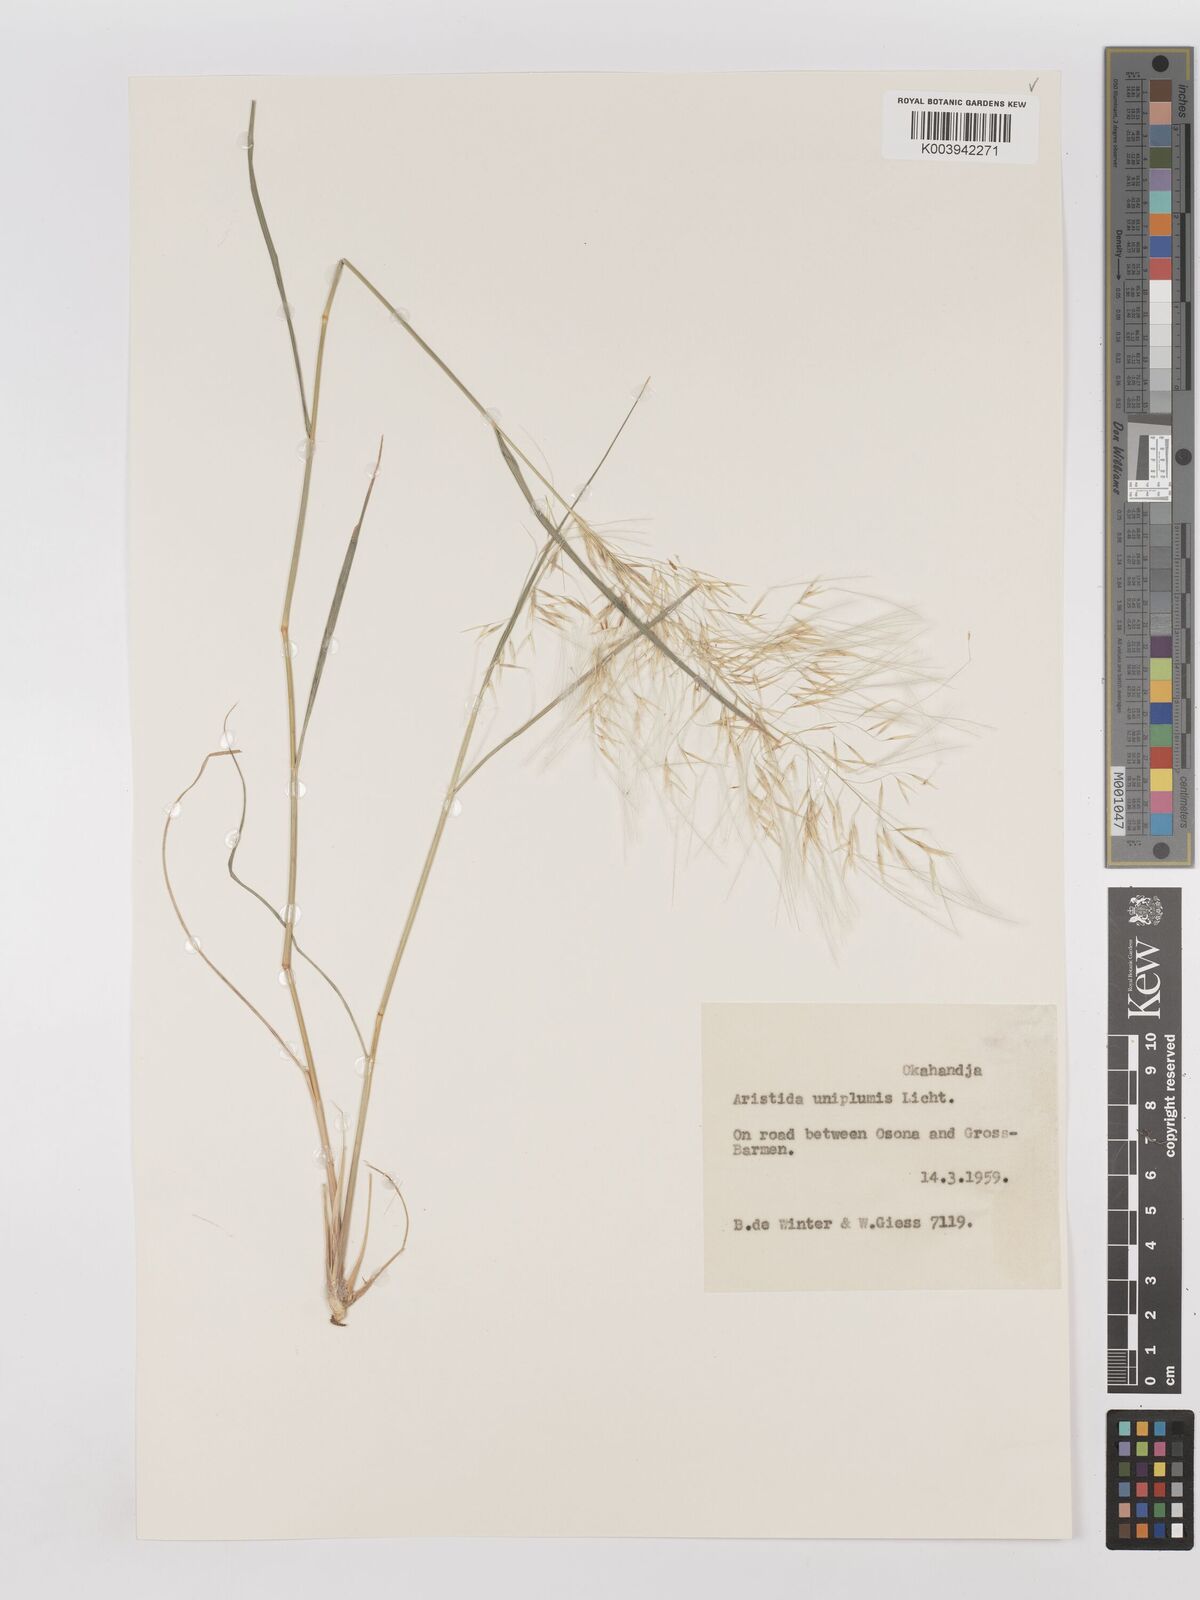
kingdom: Plantae
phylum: Tracheophyta
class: Liliopsida
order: Poales
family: Poaceae
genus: Stipagrostis
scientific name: Stipagrostis uniplumis
